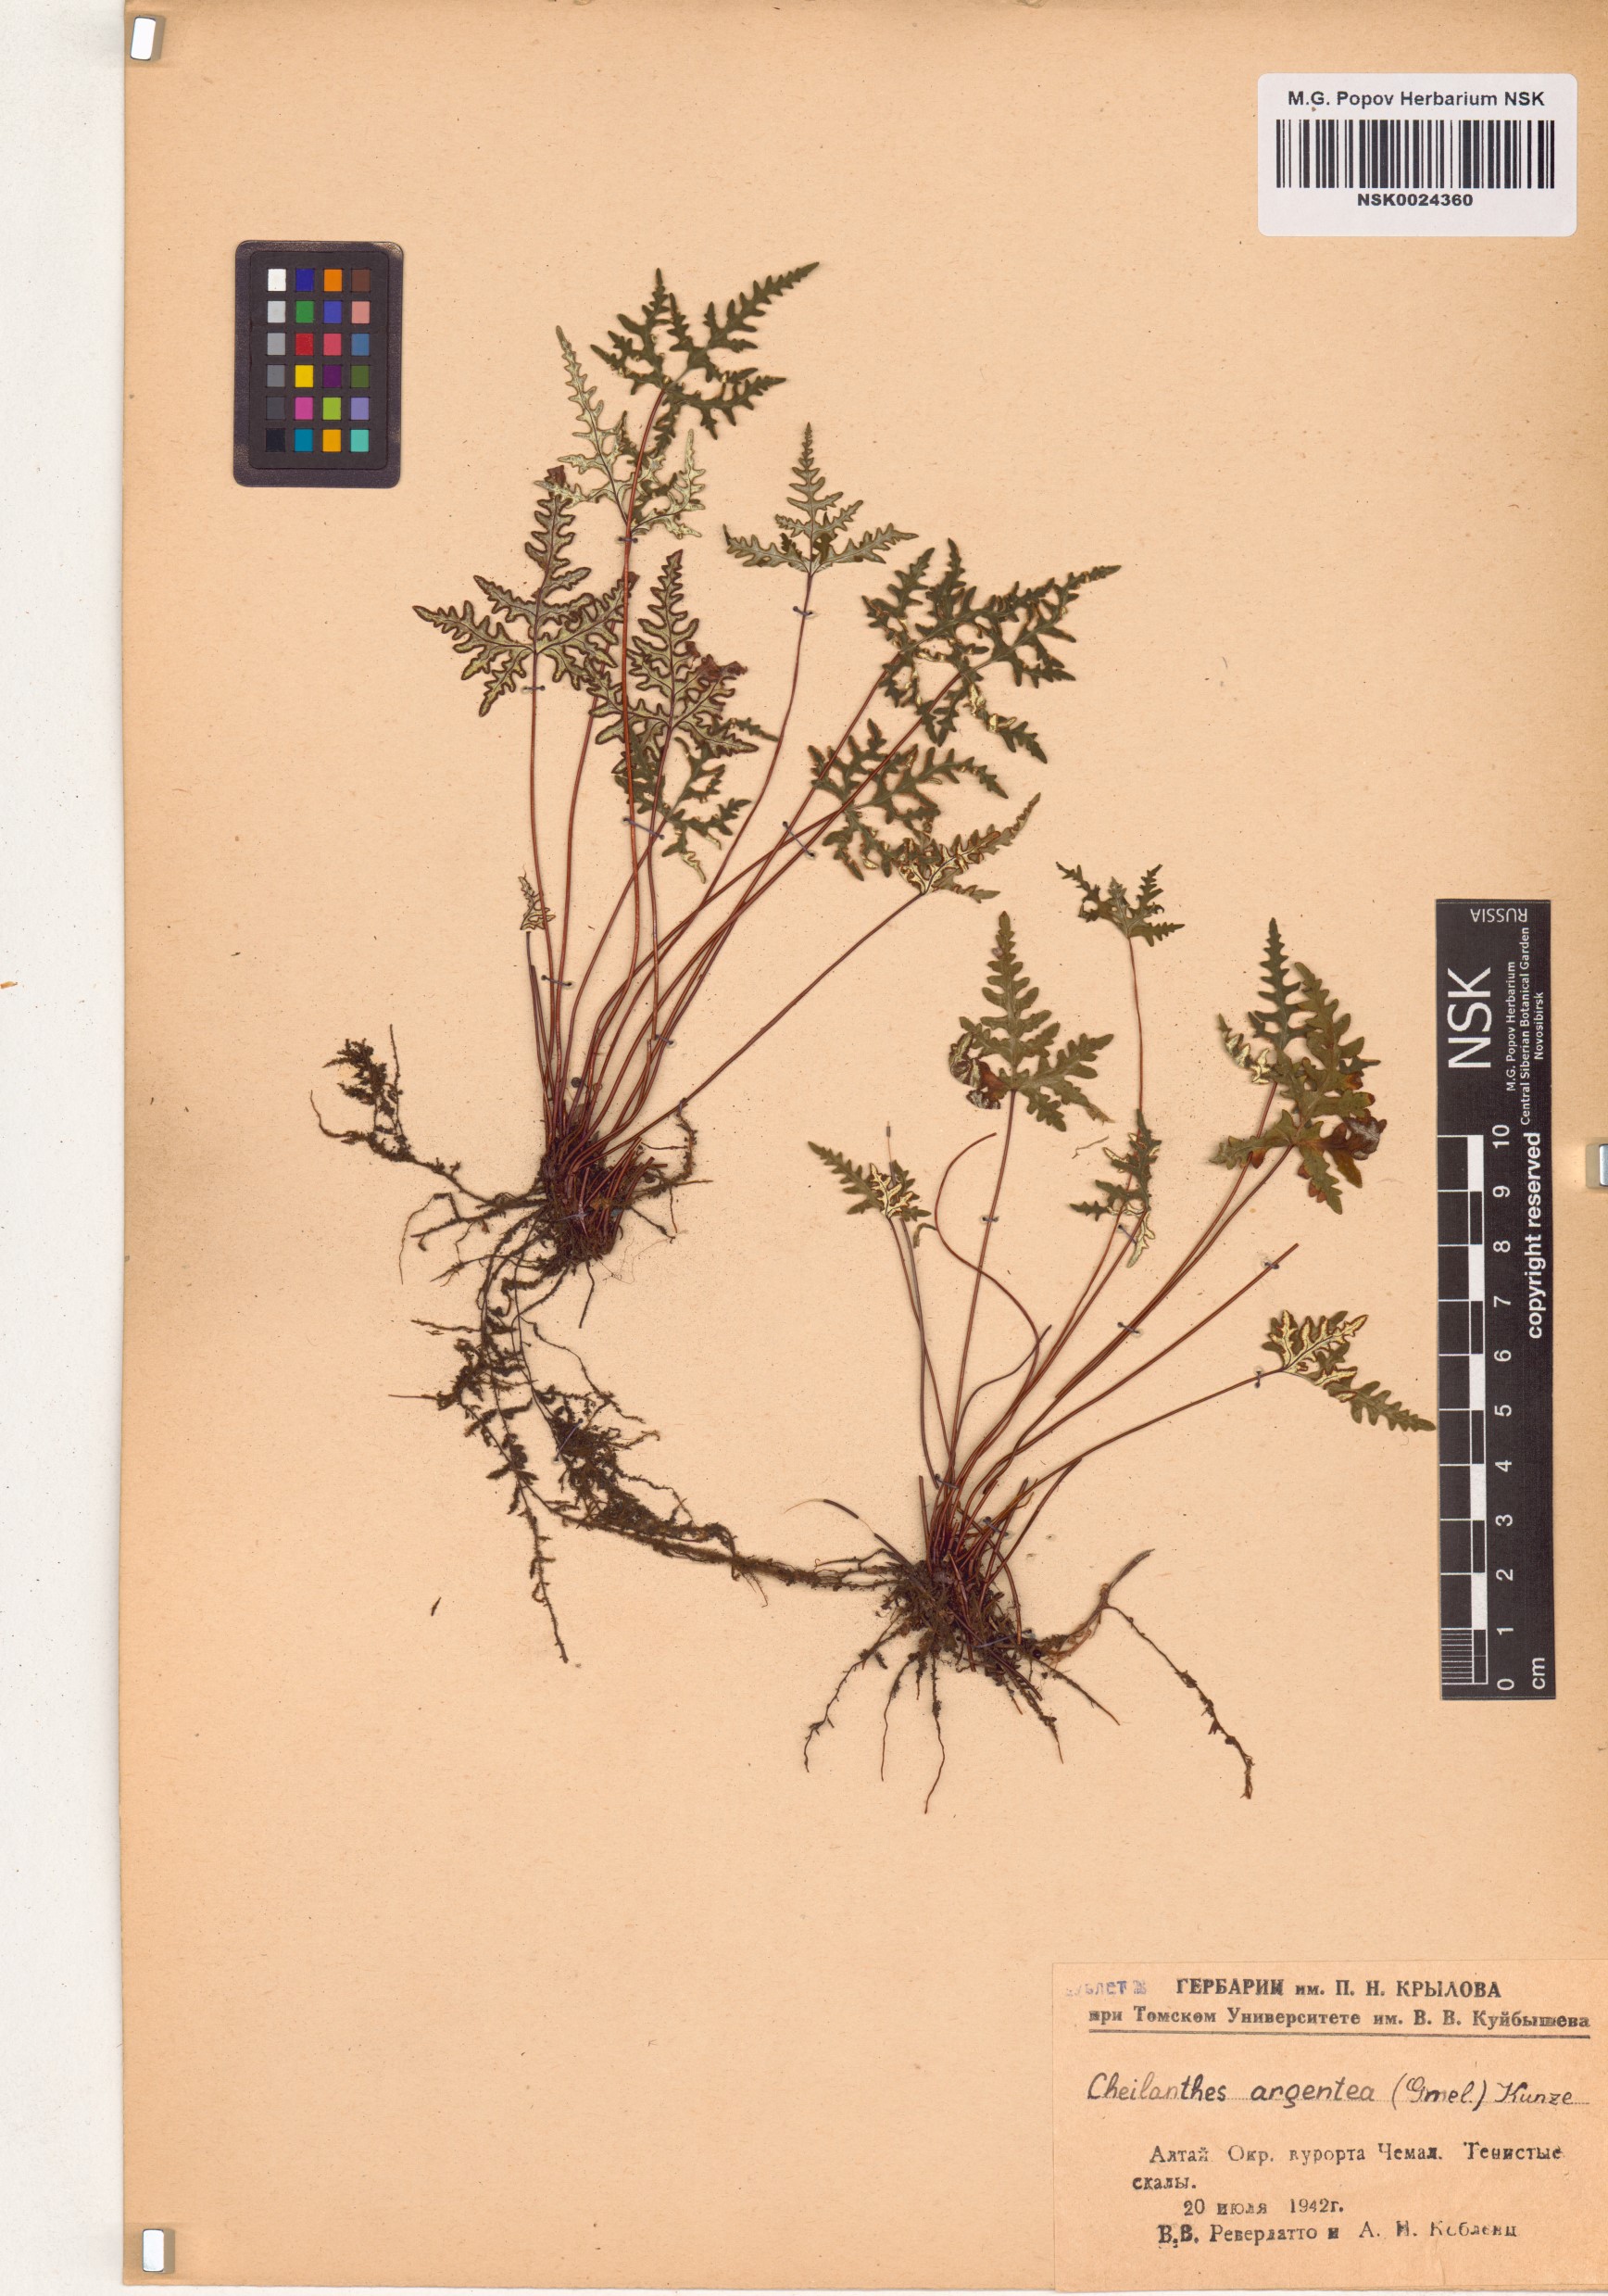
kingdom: Plantae
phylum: Tracheophyta
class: Polypodiopsida
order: Polypodiales
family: Pteridaceae
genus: Aleuritopteris
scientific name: Aleuritopteris argentea
